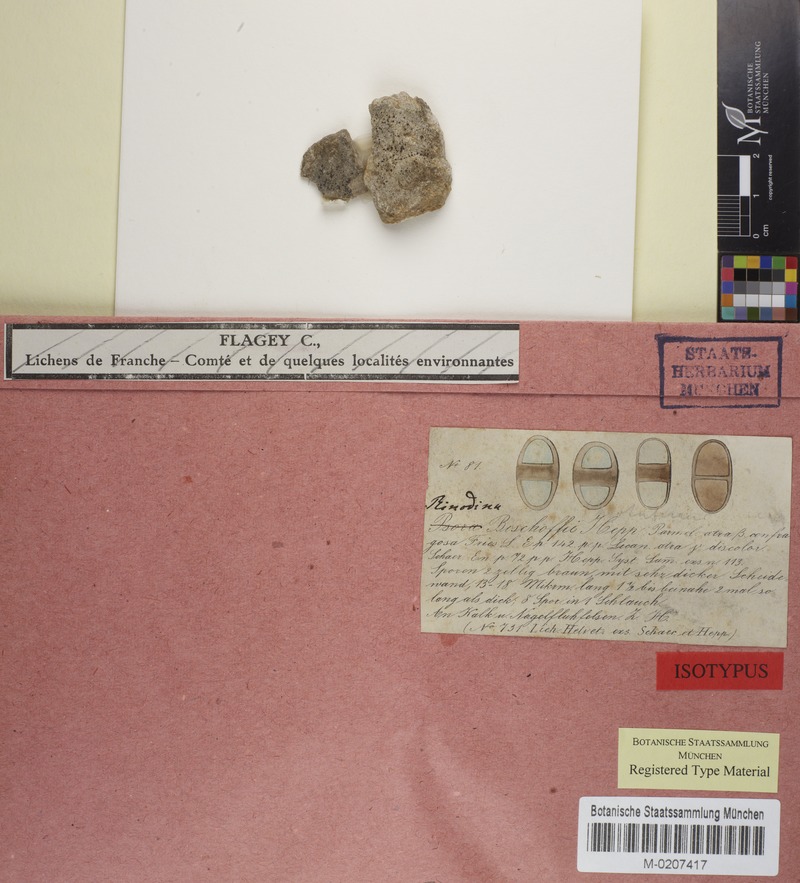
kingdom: Fungi
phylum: Ascomycota
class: Lecanoromycetes
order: Caliciales
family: Physciaceae
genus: Rinodina
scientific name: Rinodina bischoffii
